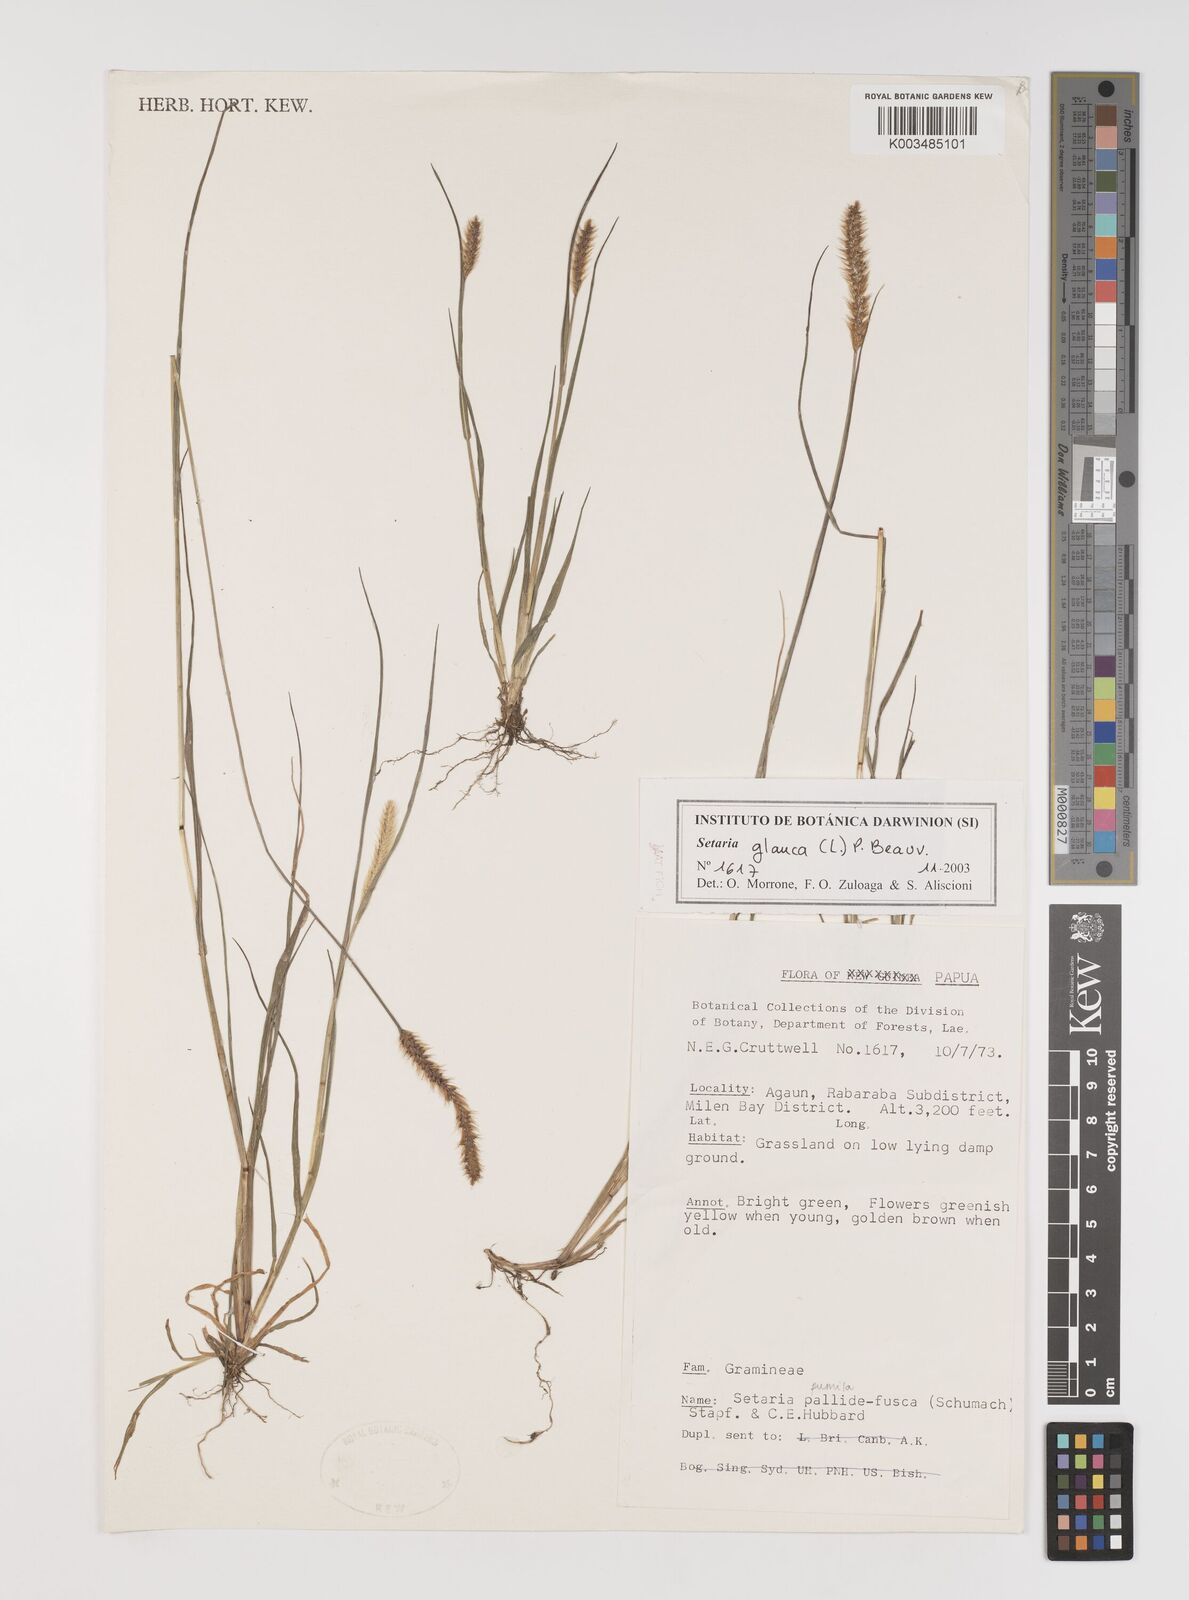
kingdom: Plantae
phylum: Tracheophyta
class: Liliopsida
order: Poales
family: Poaceae
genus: Setaria
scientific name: Setaria pumila
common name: Yellow bristle-grass
